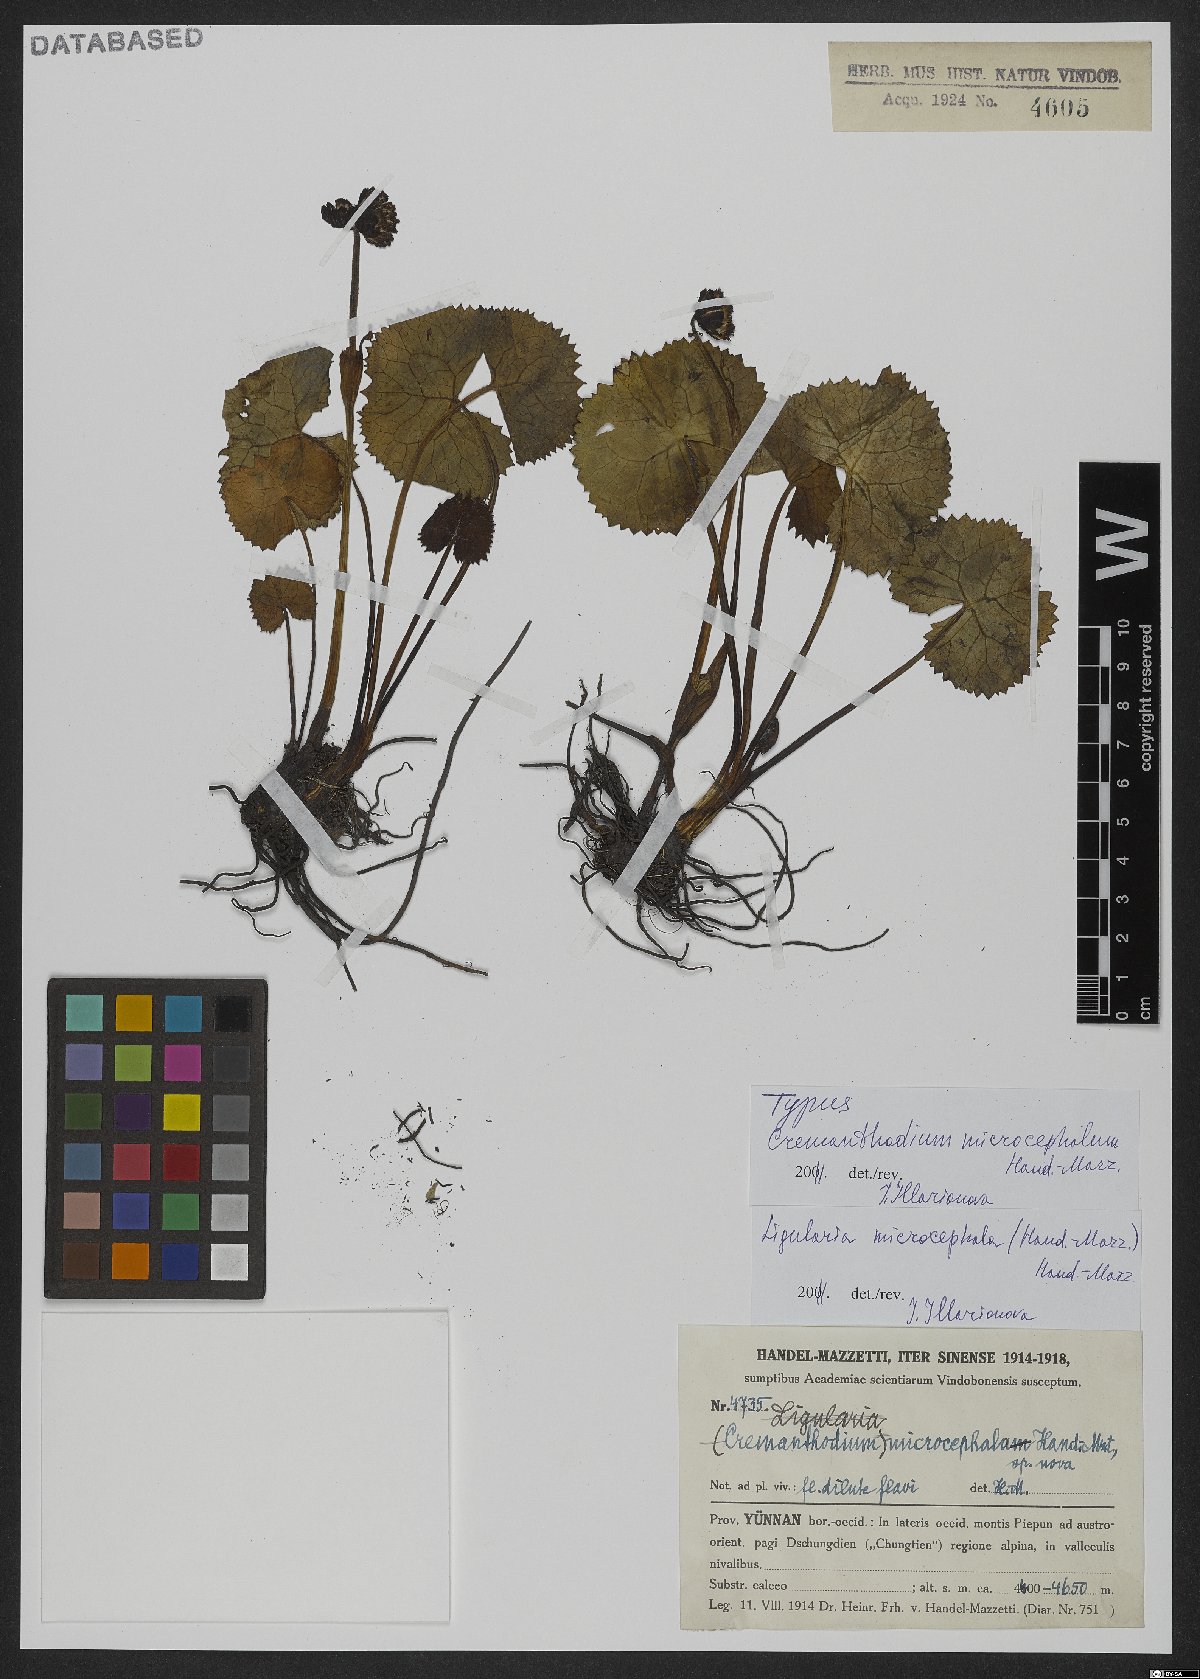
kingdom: Plantae
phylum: Tracheophyta
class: Magnoliopsida
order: Asterales
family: Asteraceae
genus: Ligularia
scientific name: Ligularia microcephala
